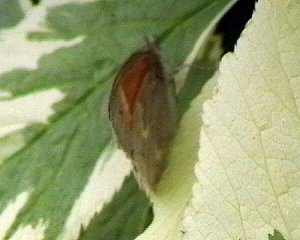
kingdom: Animalia
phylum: Arthropoda
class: Insecta
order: Lepidoptera
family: Nymphalidae
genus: Coenonympha
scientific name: Coenonympha tullia
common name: Large Heath
